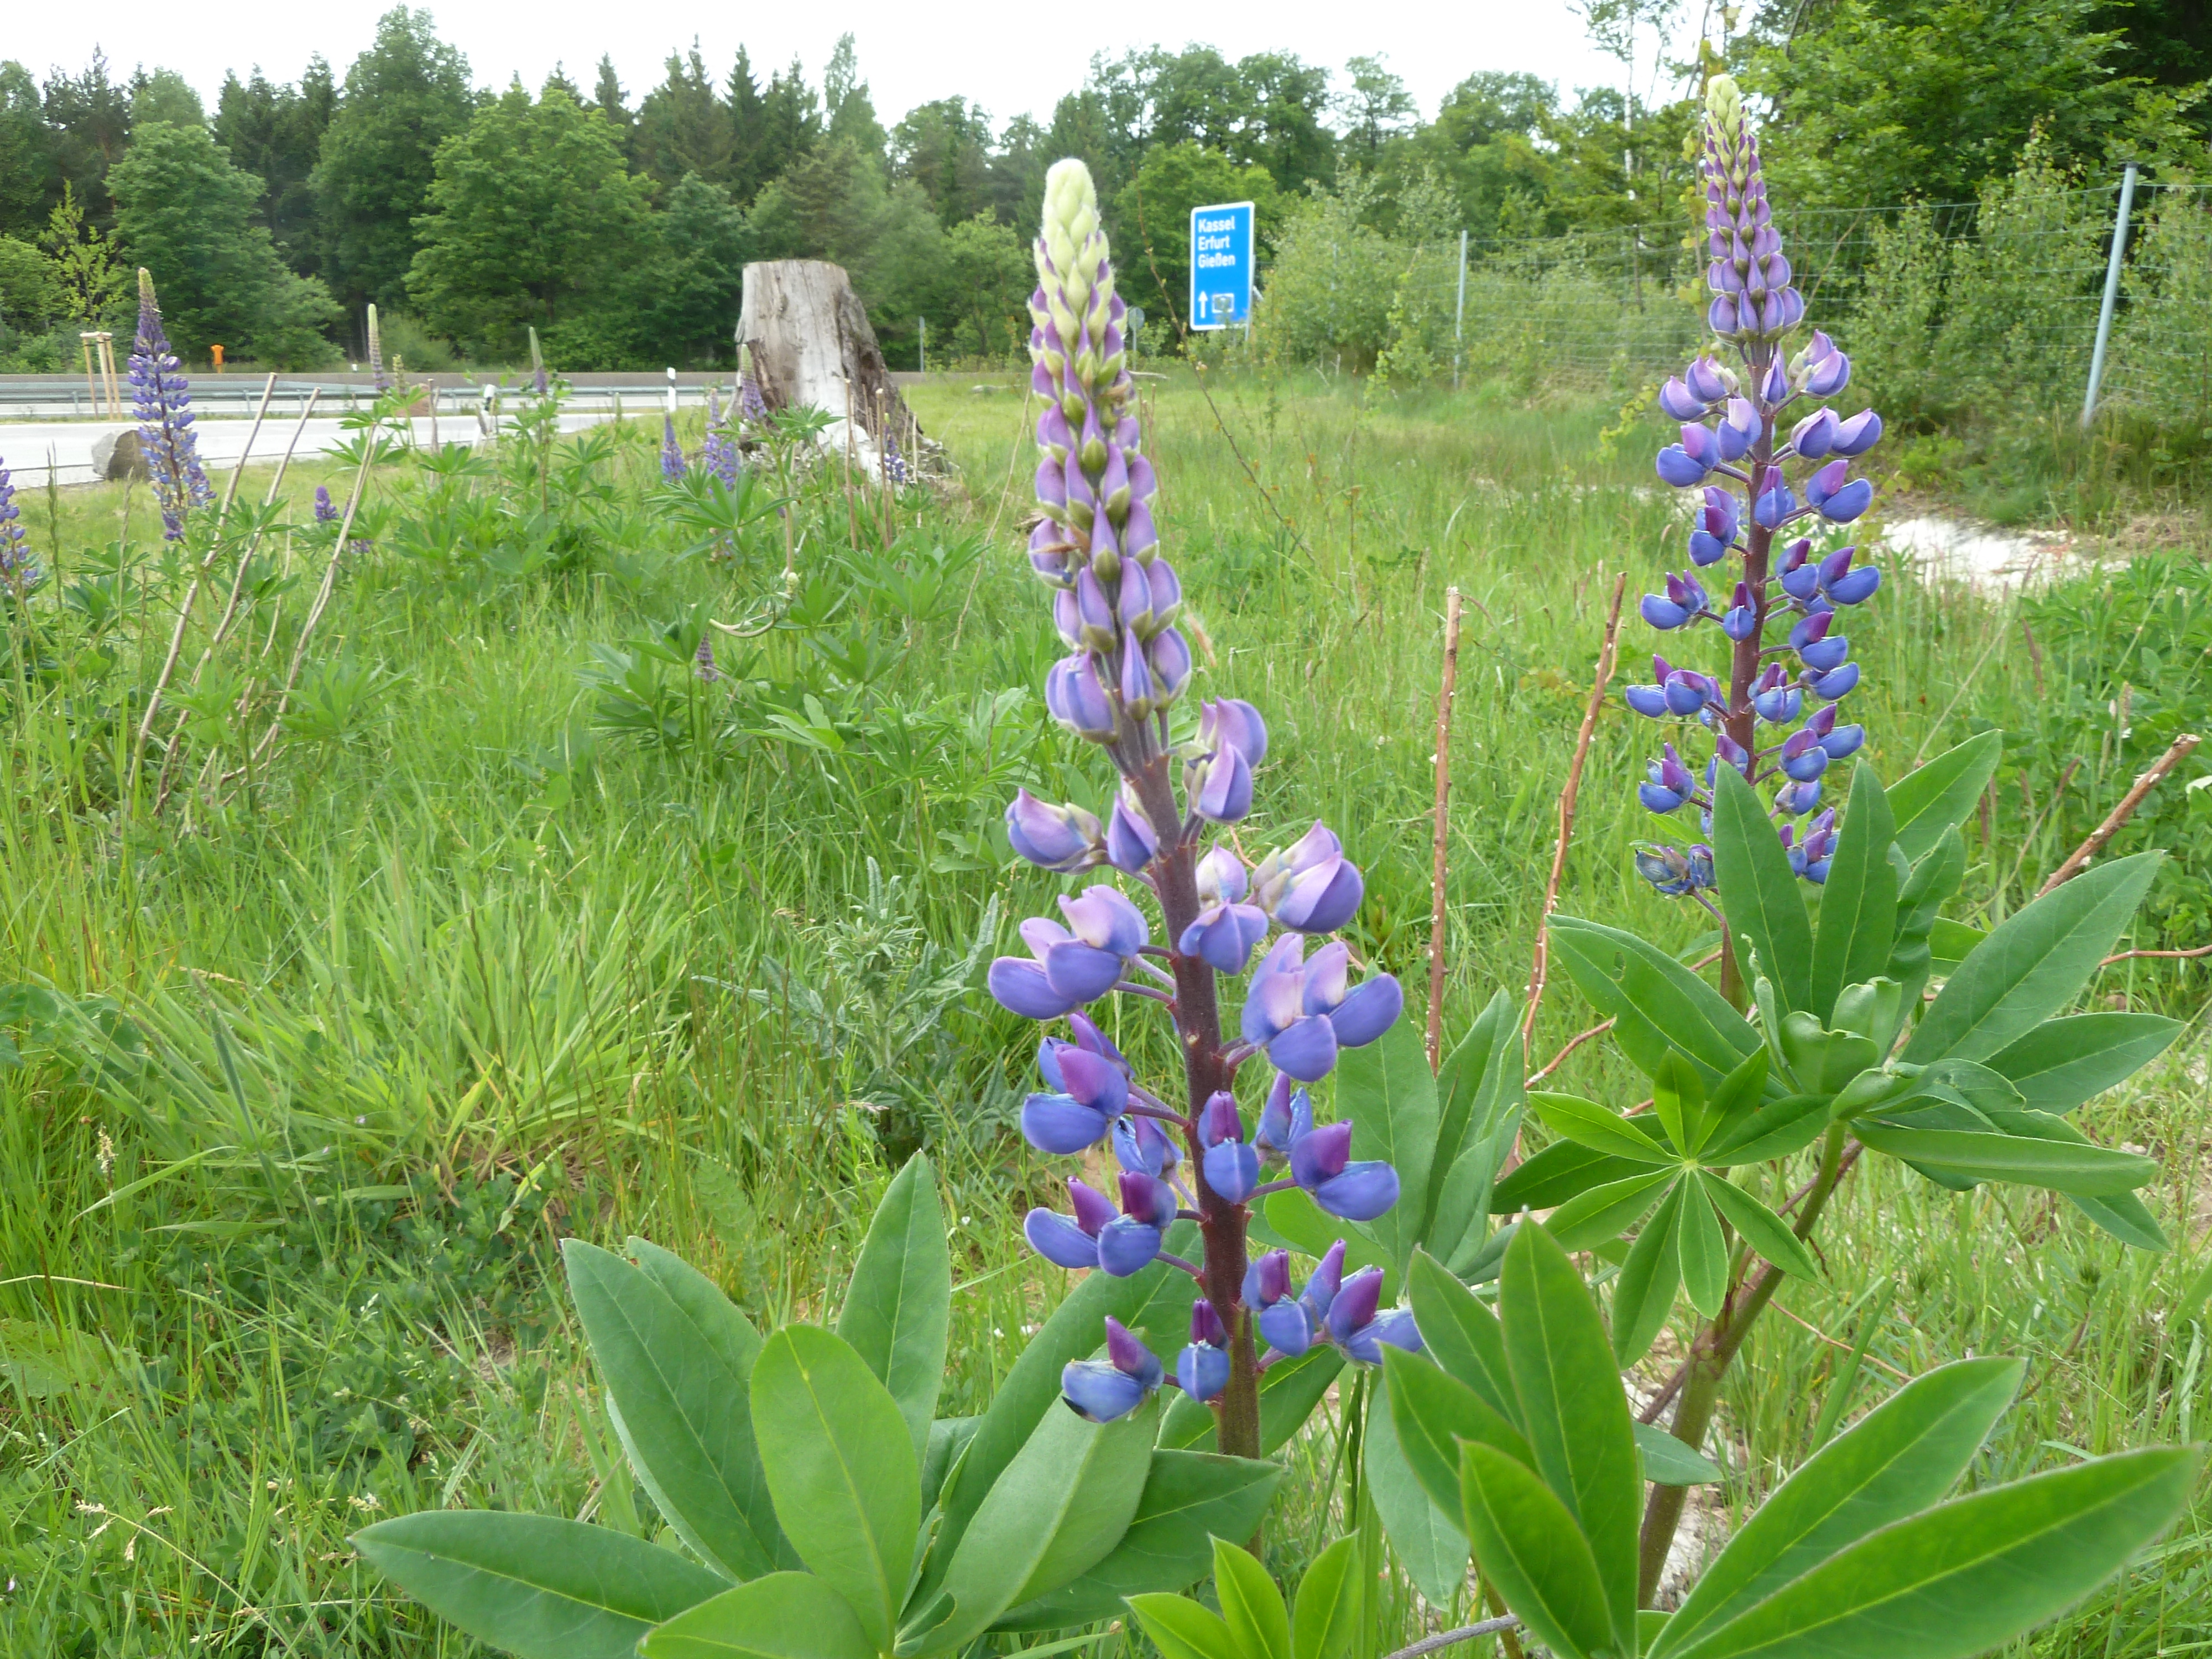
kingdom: Plantae
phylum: Tracheophyta
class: Magnoliopsida
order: Fabales
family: Fabaceae
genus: Lupinus
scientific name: Lupinus polyphyllus
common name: Garden lupin
